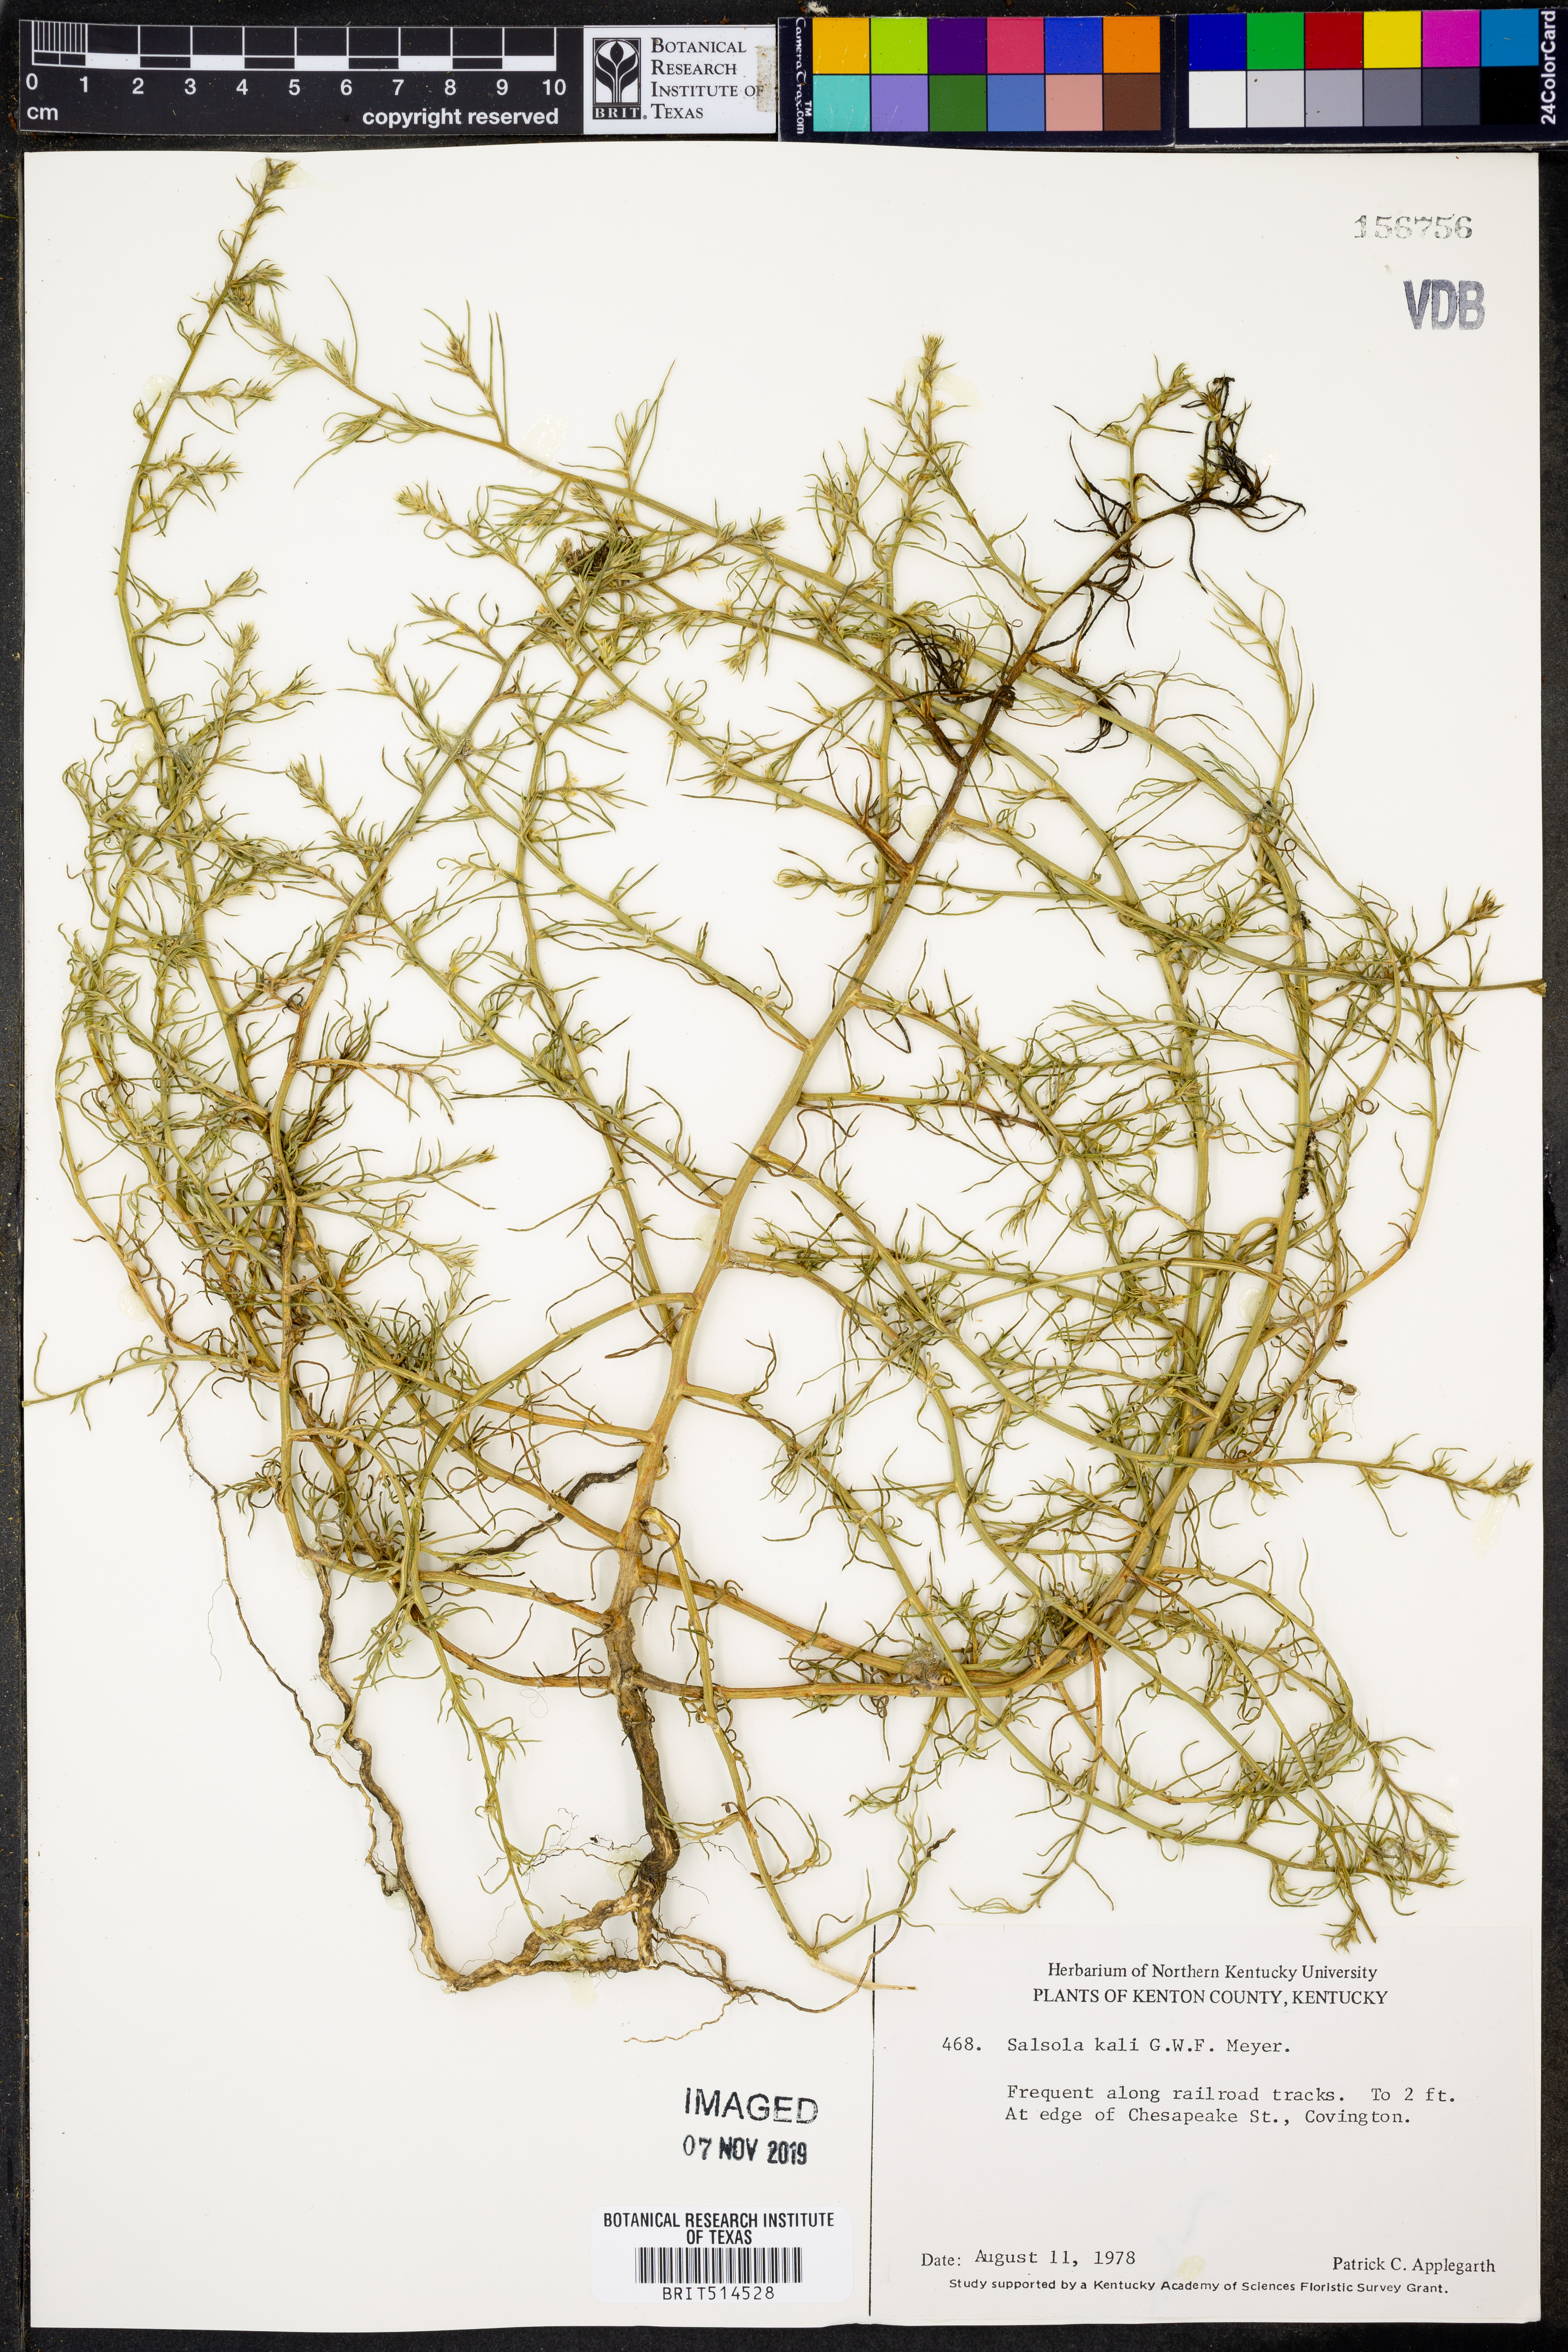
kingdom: Plantae
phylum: Tracheophyta
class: Magnoliopsida
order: Caryophyllales
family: Amaranthaceae
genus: Salsola
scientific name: Salsola tragus
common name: Prickly russian thistle
